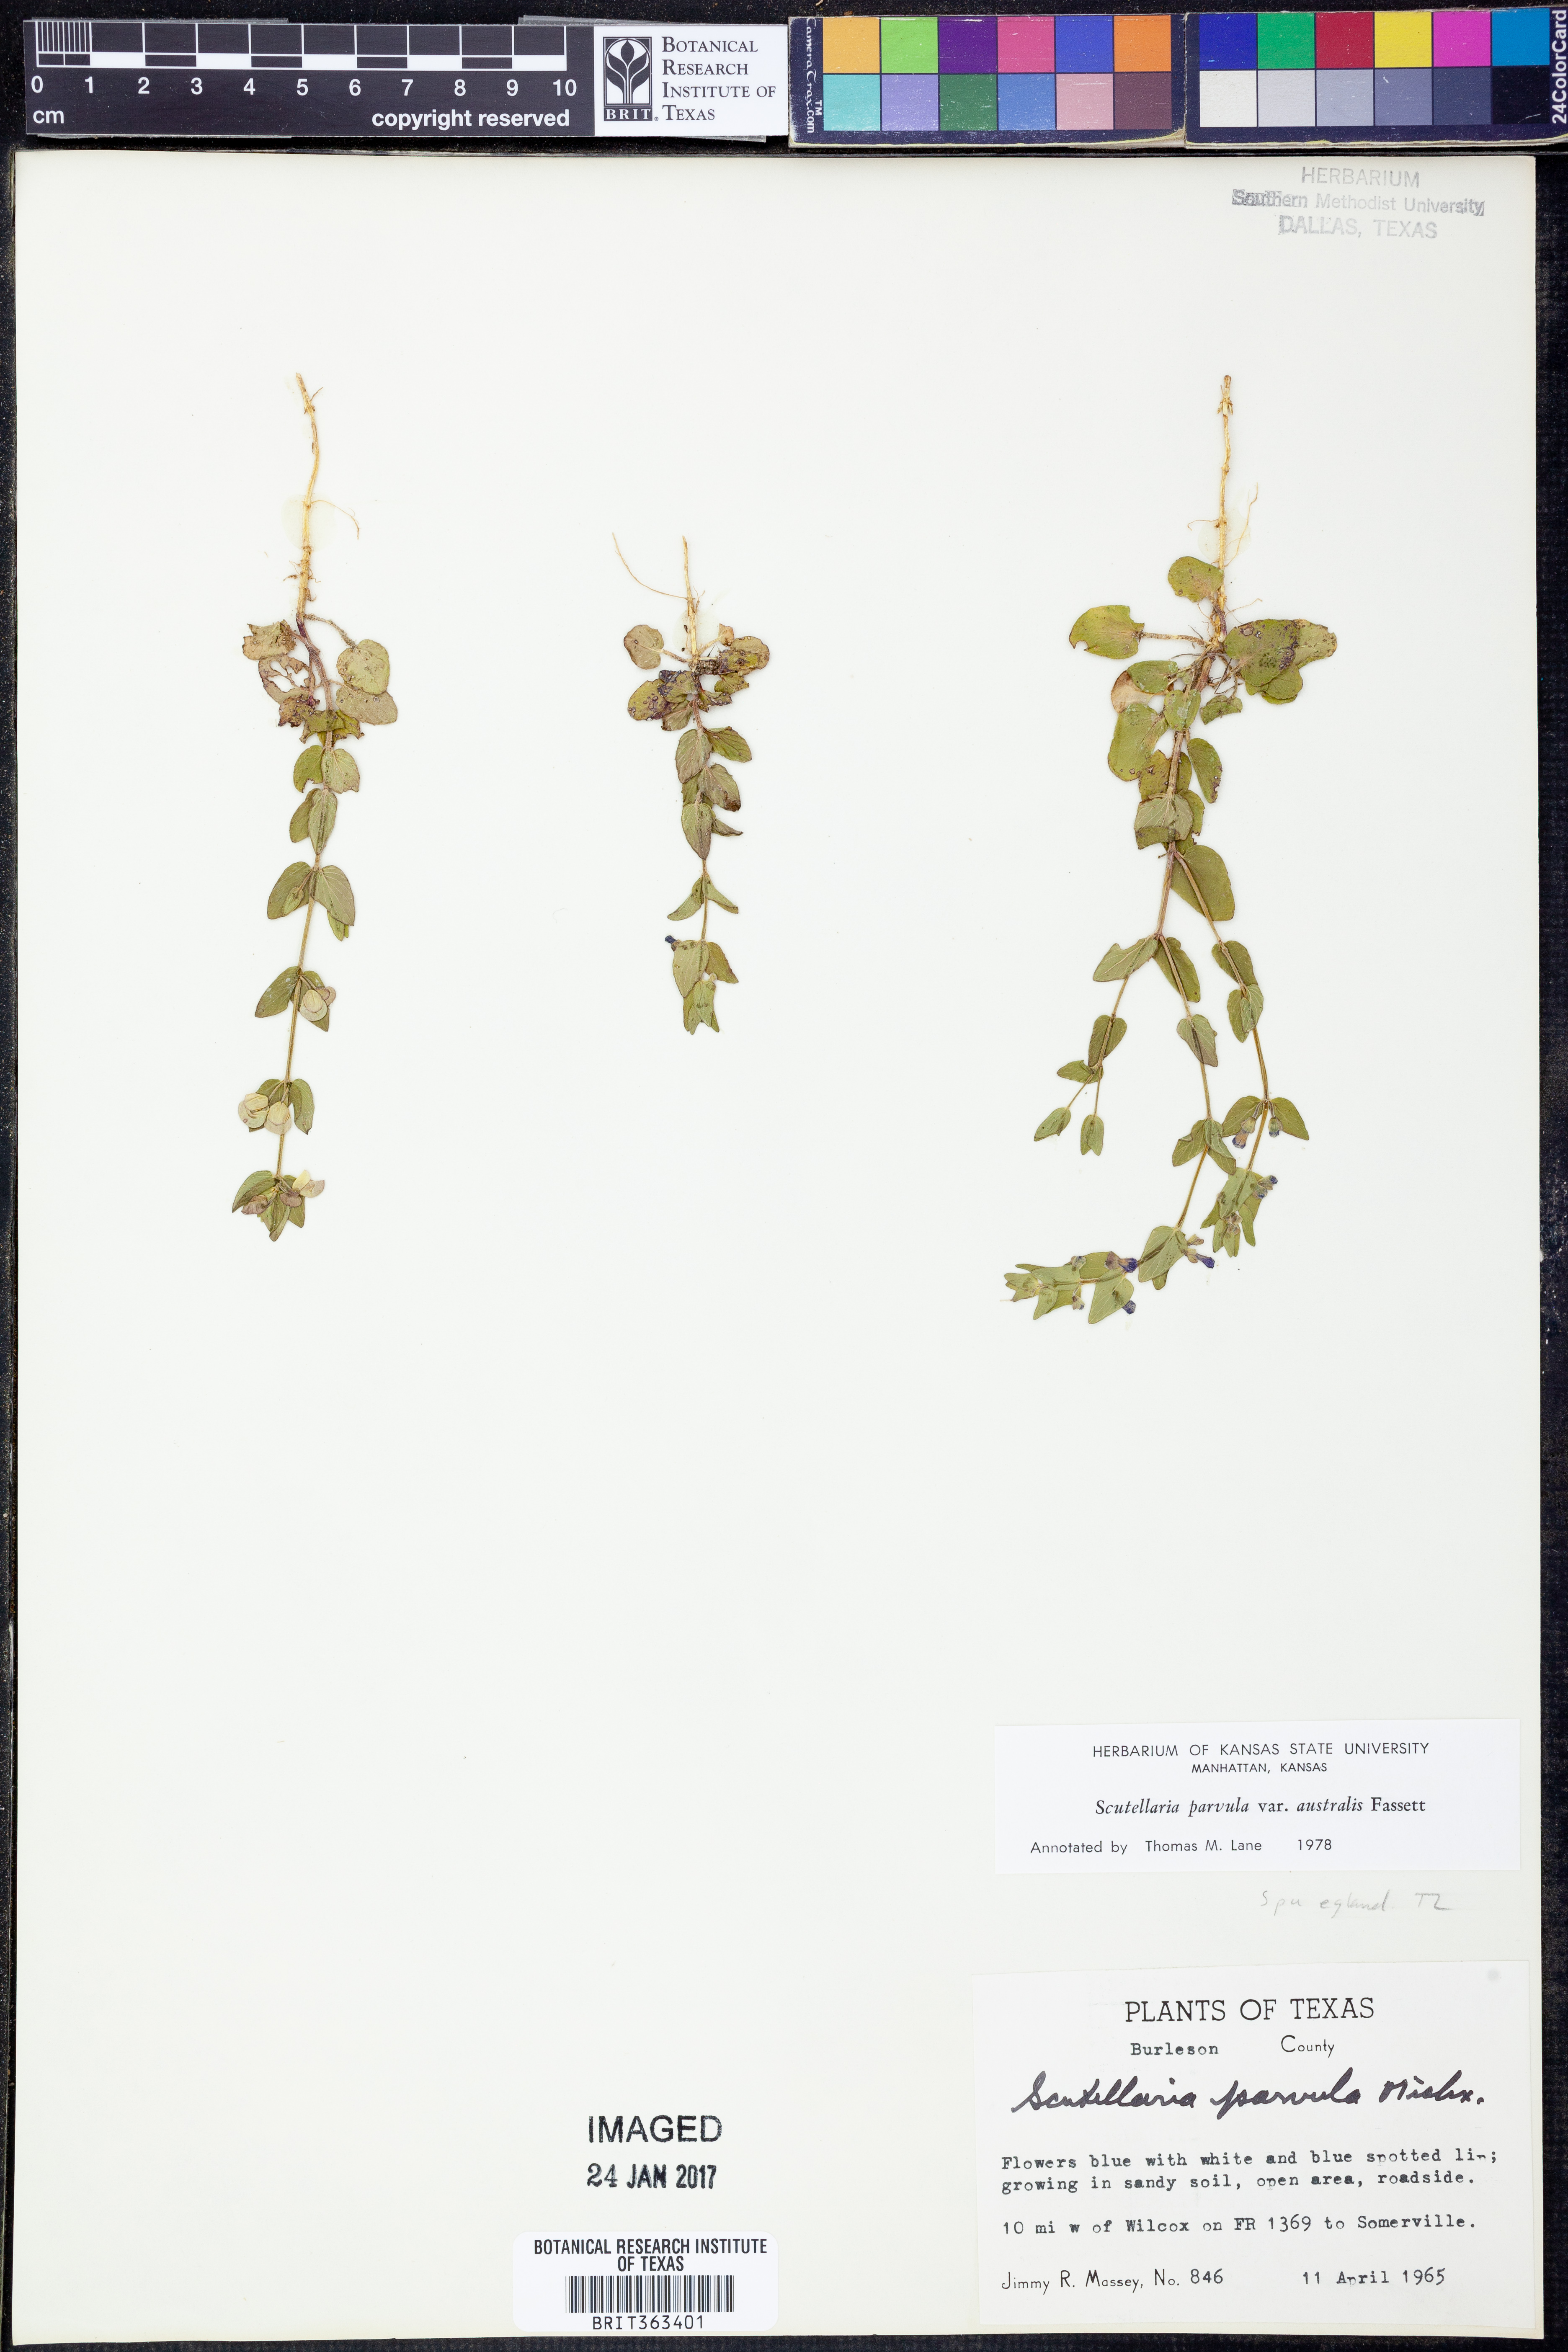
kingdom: Plantae
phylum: Tracheophyta
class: Magnoliopsida
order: Lamiales
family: Lamiaceae
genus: Scutellaria
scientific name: Scutellaria parvula
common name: Little scullcap
